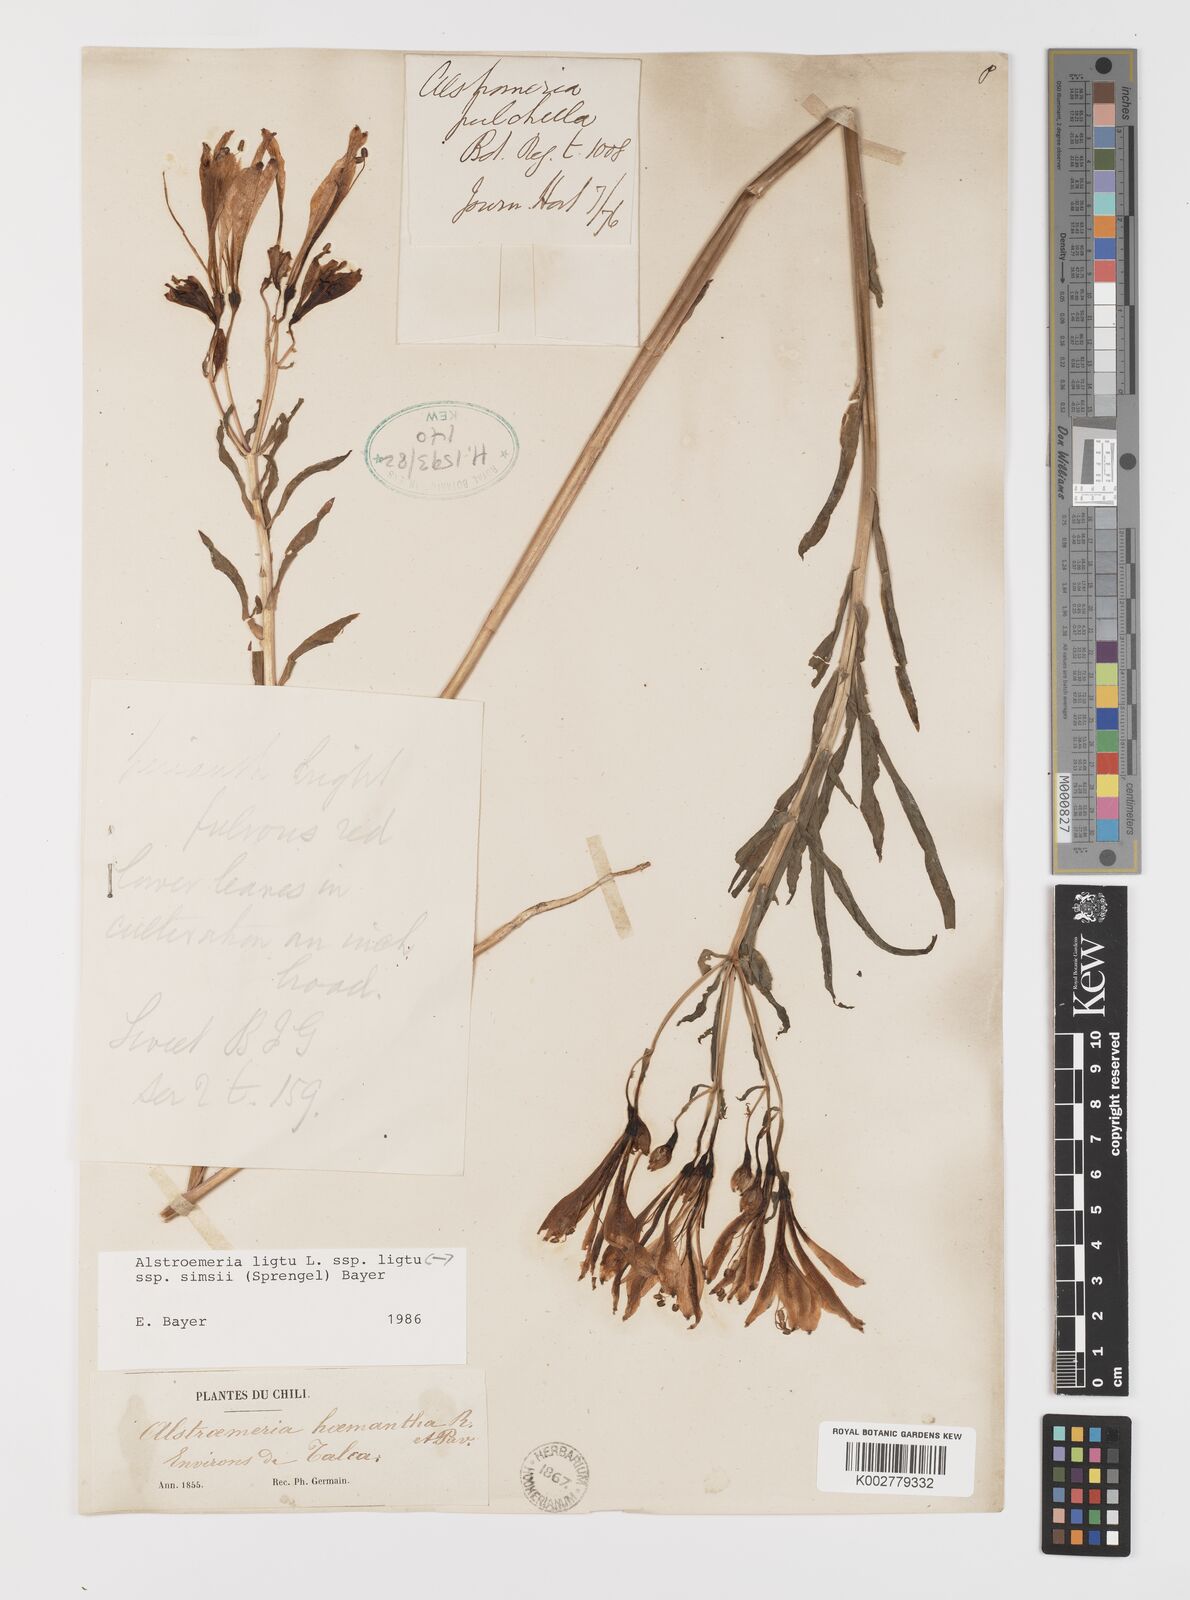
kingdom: Plantae
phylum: Tracheophyta
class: Liliopsida
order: Liliales
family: Alstroemeriaceae
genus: Alstroemeria
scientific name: Alstroemeria ligtu
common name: St. martin's-flower
